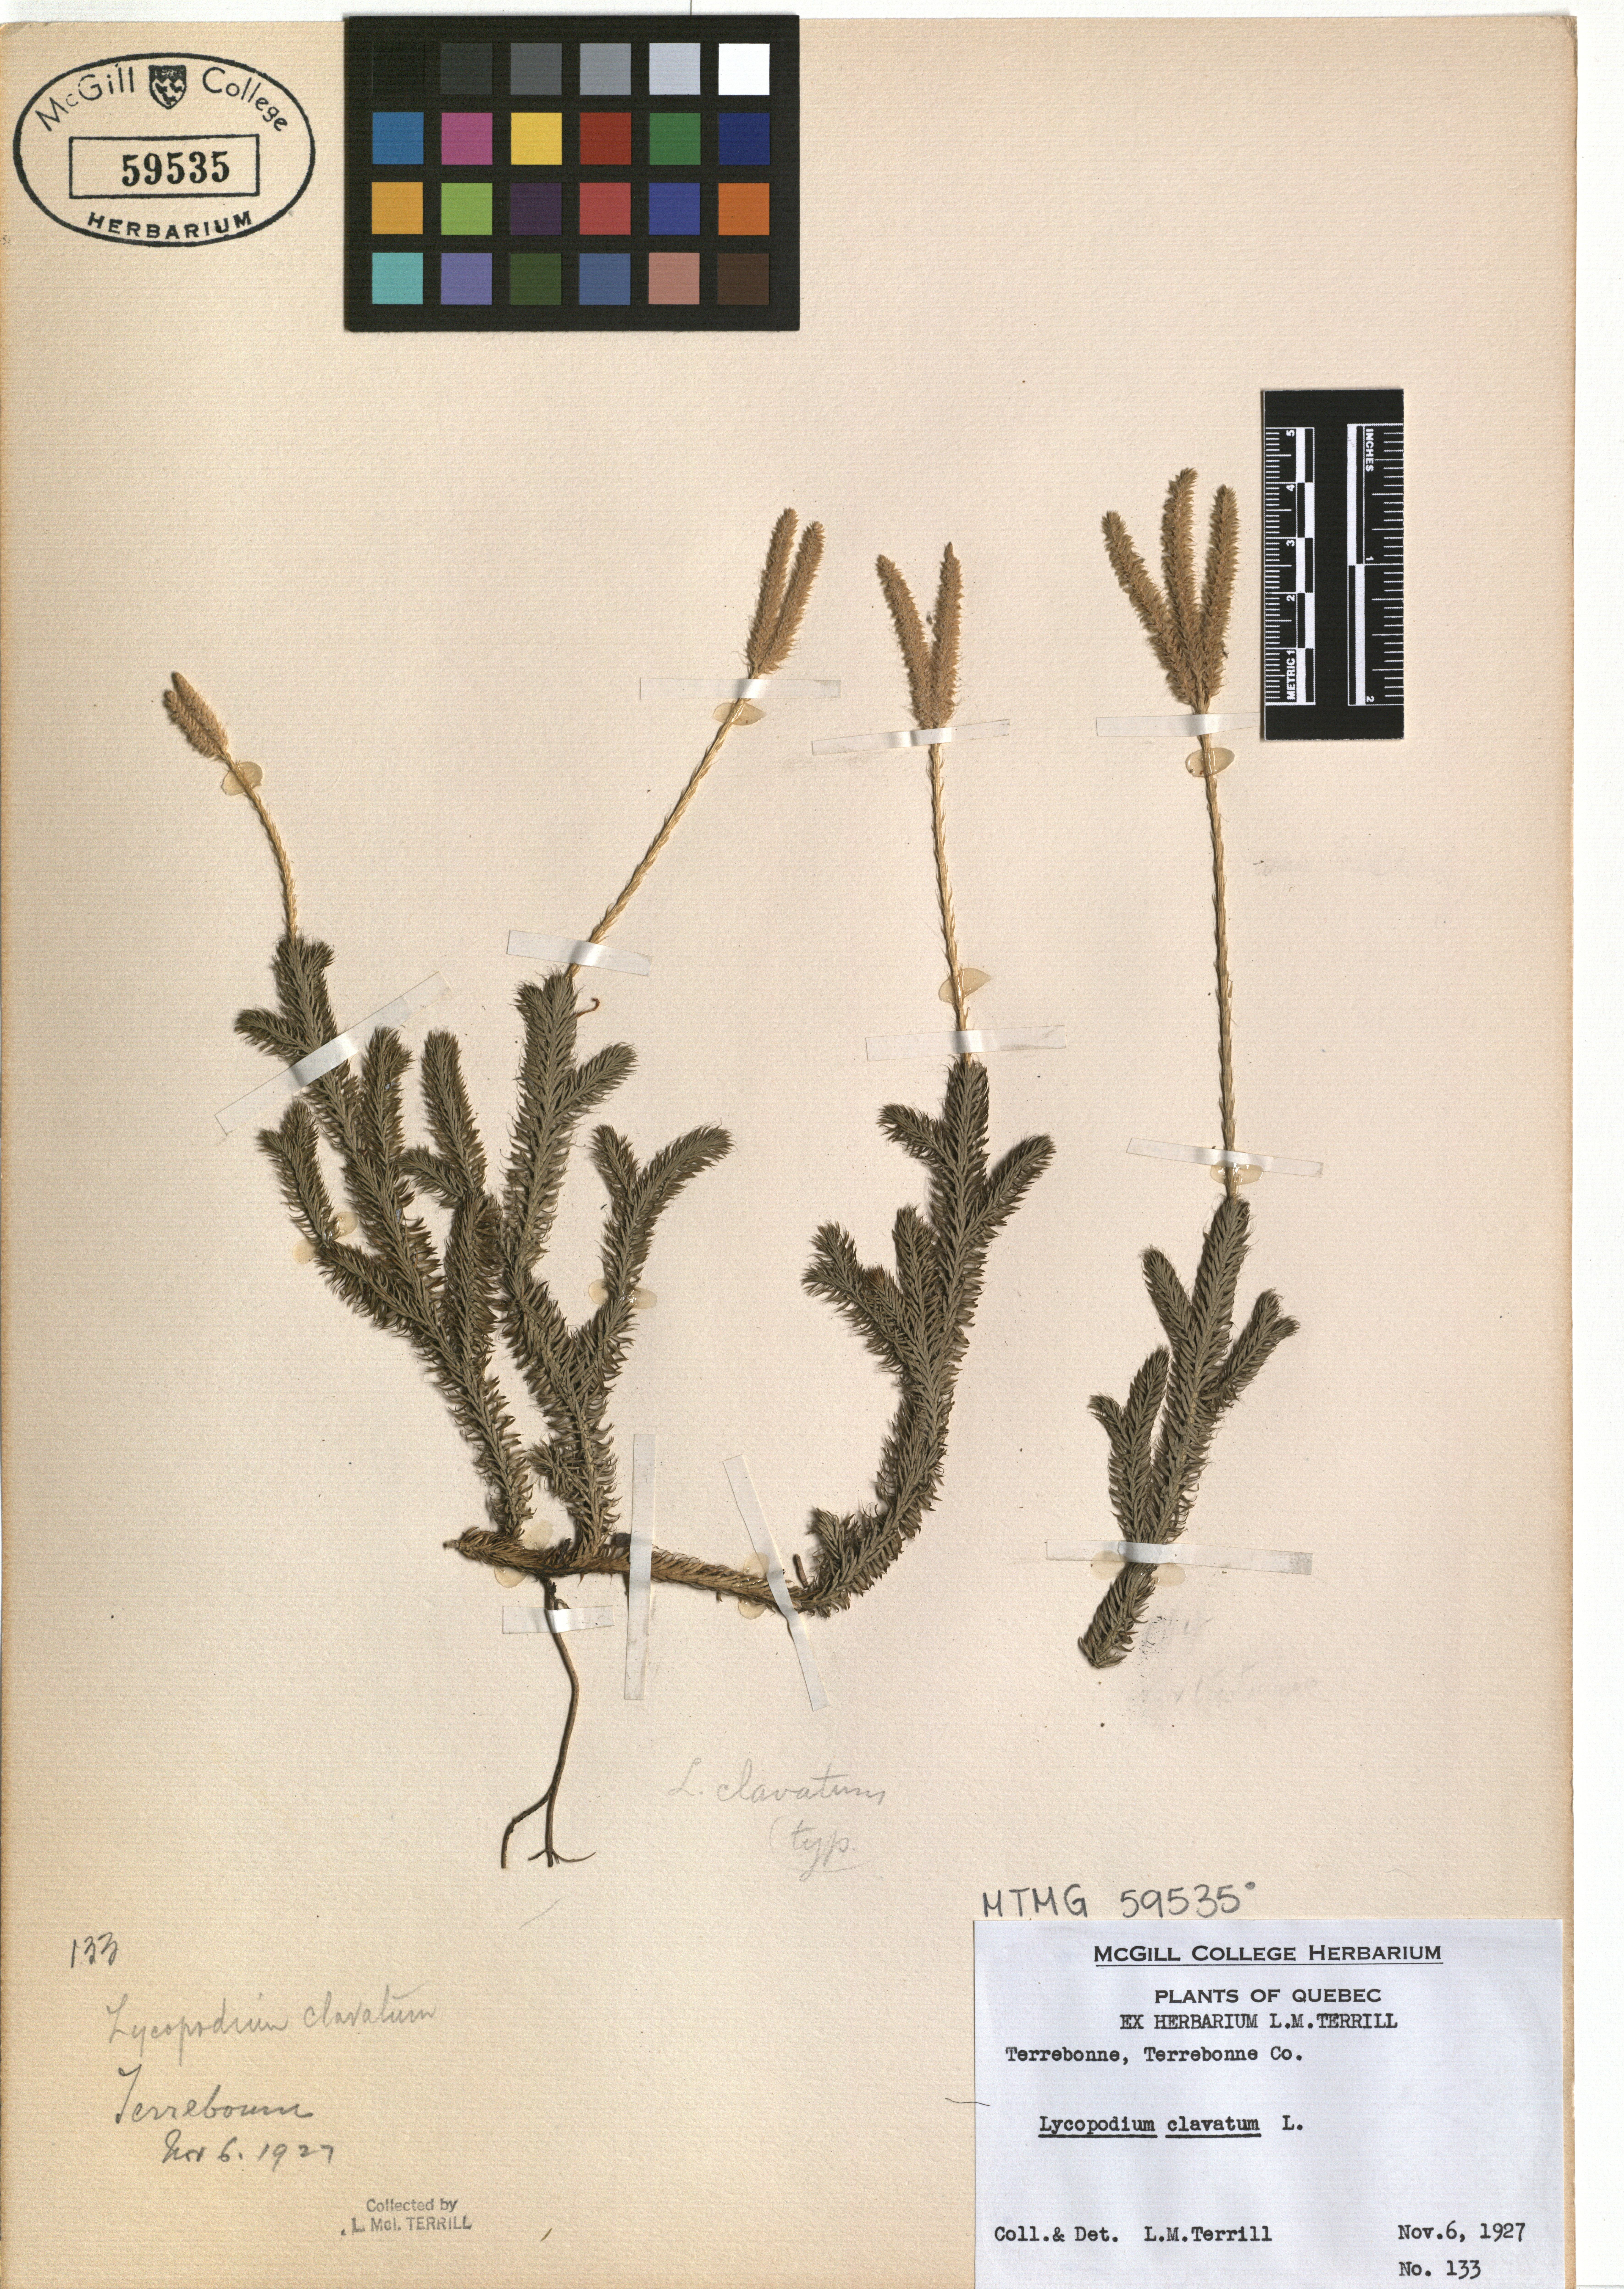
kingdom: Plantae
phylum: Tracheophyta
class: Lycopodiopsida
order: Lycopodiales
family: Lycopodiaceae
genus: Lycopodium
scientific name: Lycopodium clavatum
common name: Stag's-horn clubmoss
